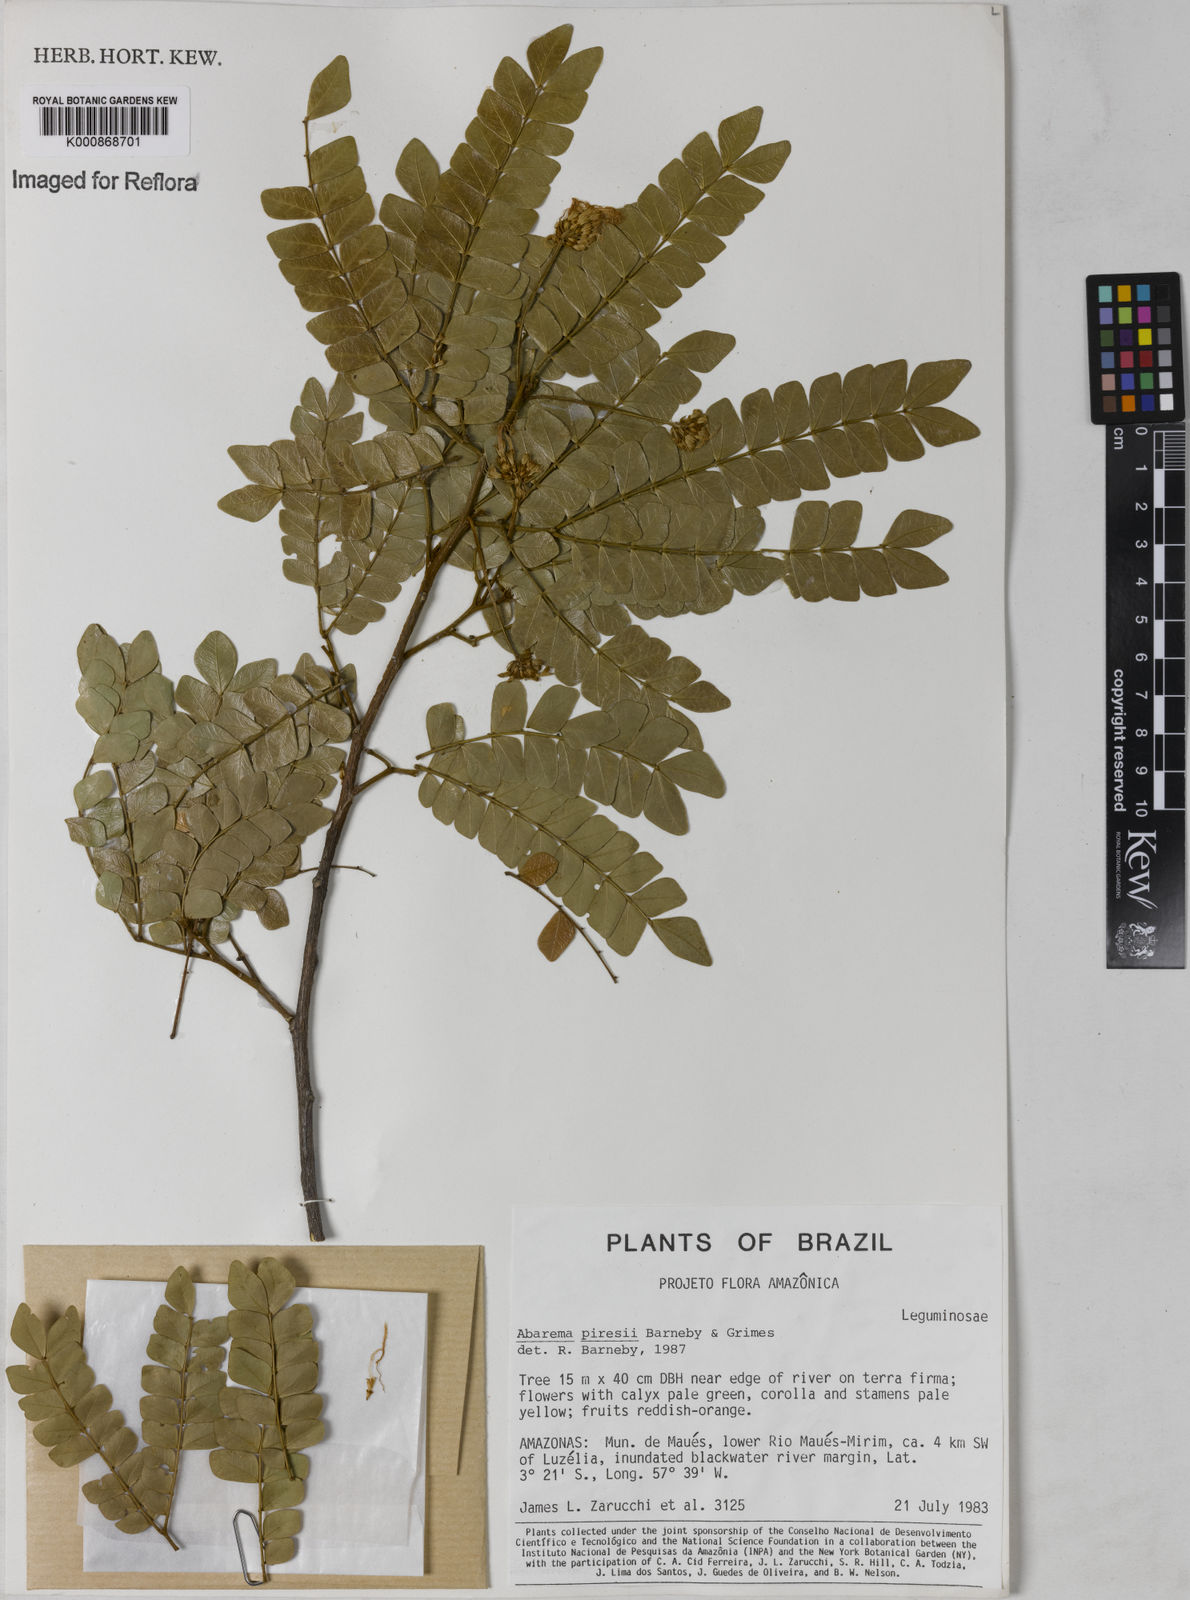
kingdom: Plantae
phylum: Tracheophyta
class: Magnoliopsida
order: Fabales
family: Fabaceae
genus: Jupunba
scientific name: Jupunba piresii
